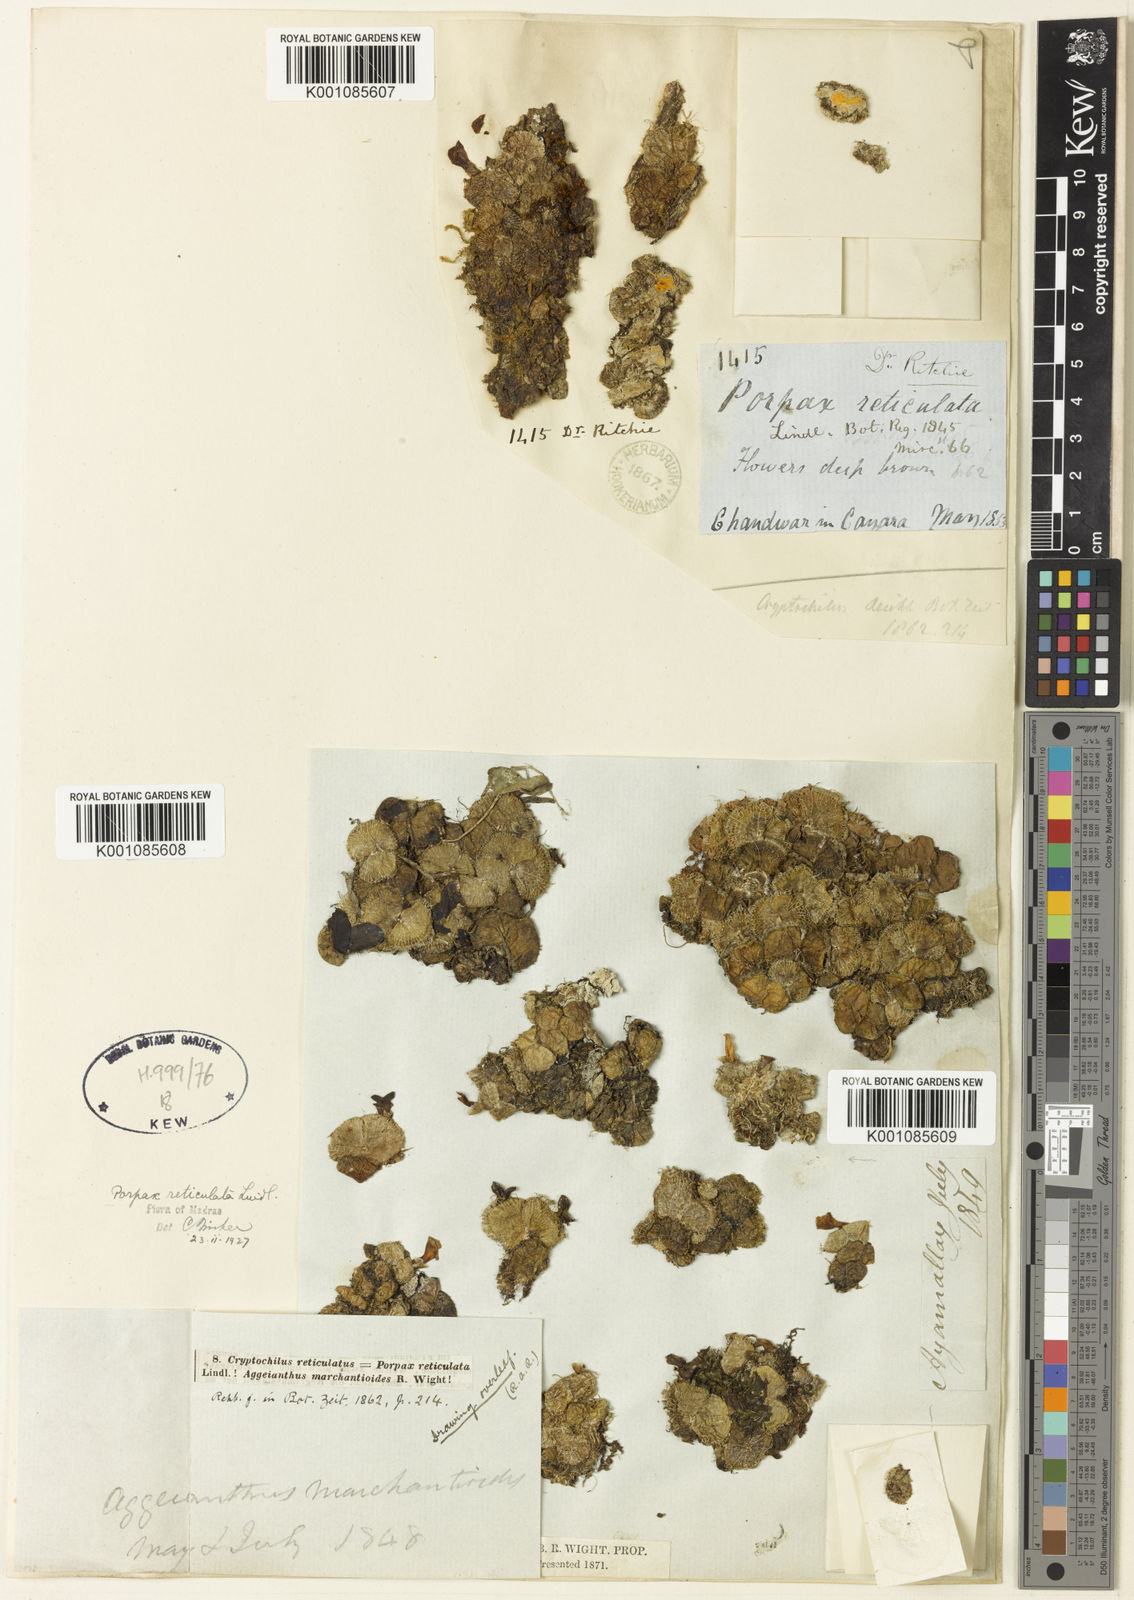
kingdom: Plantae
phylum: Tracheophyta
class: Liliopsida
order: Asparagales
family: Orchidaceae
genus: Porpax
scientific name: Porpax reticulata
